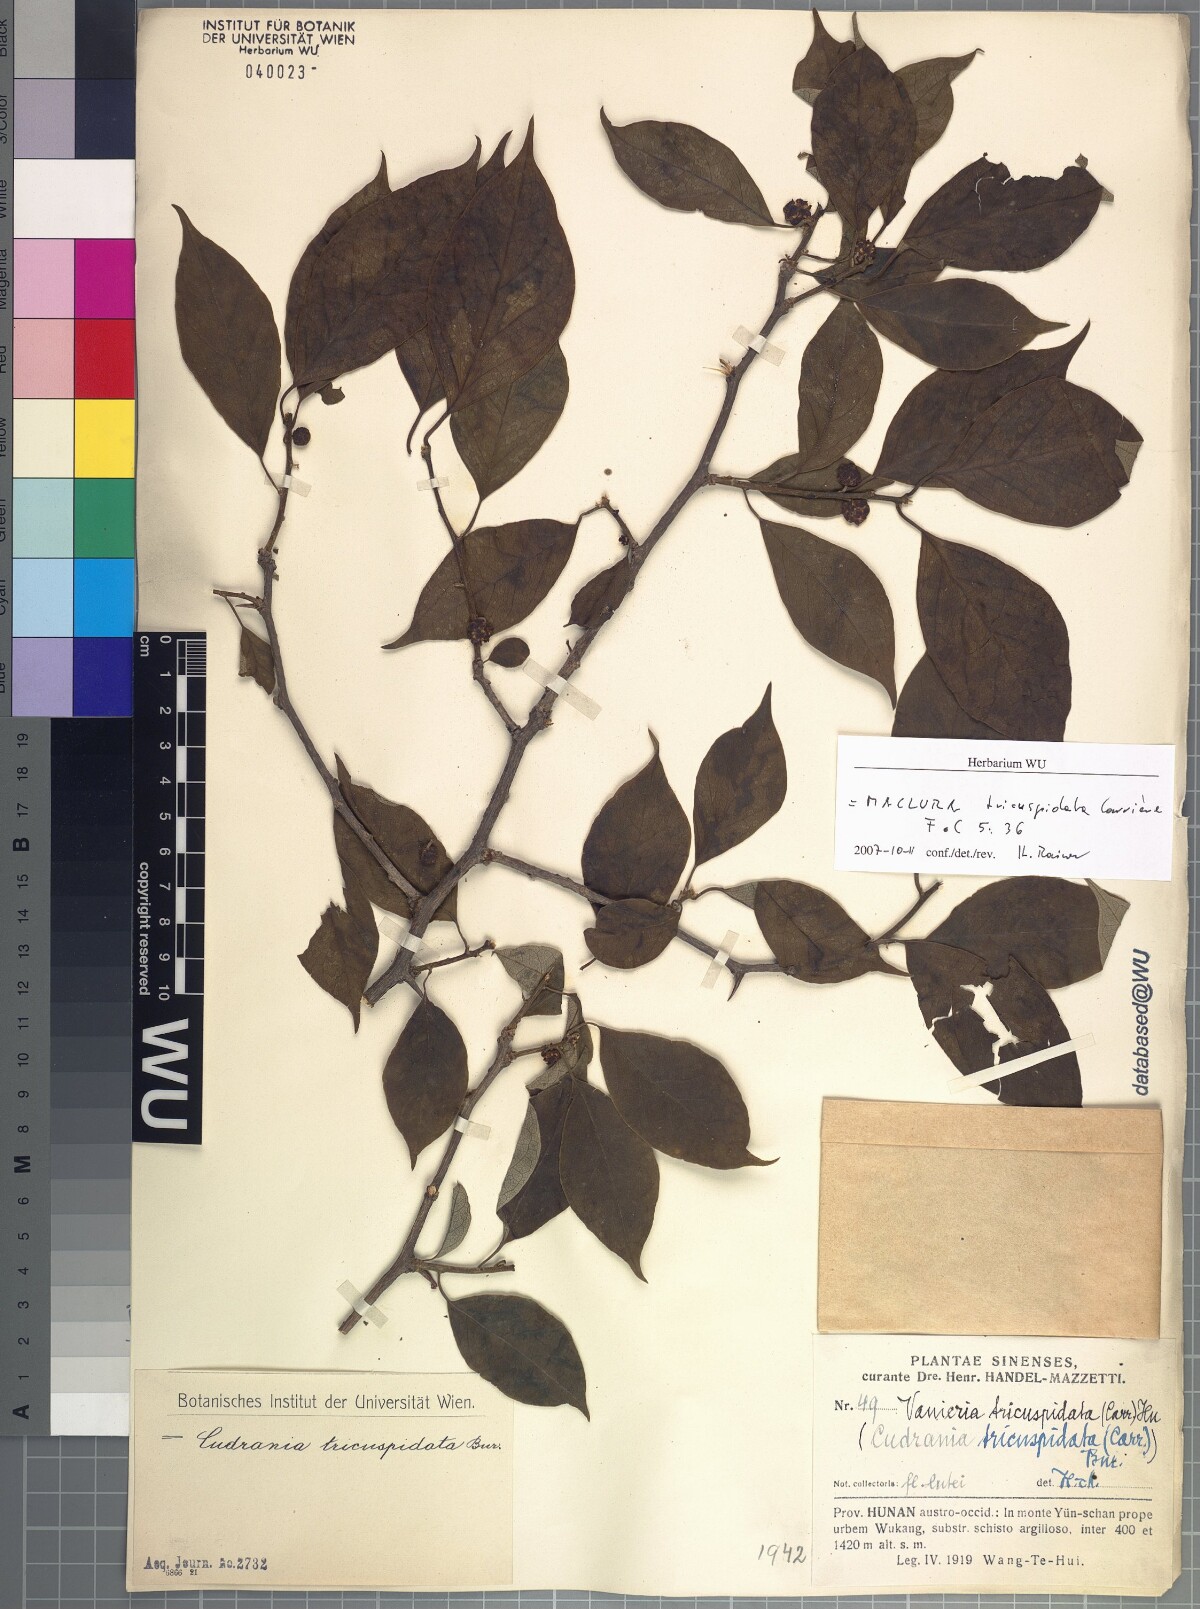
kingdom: Plantae
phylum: Tracheophyta
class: Magnoliopsida
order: Rosales
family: Moraceae
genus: Maclura
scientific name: Maclura tricuspidata
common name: Storehousebush
